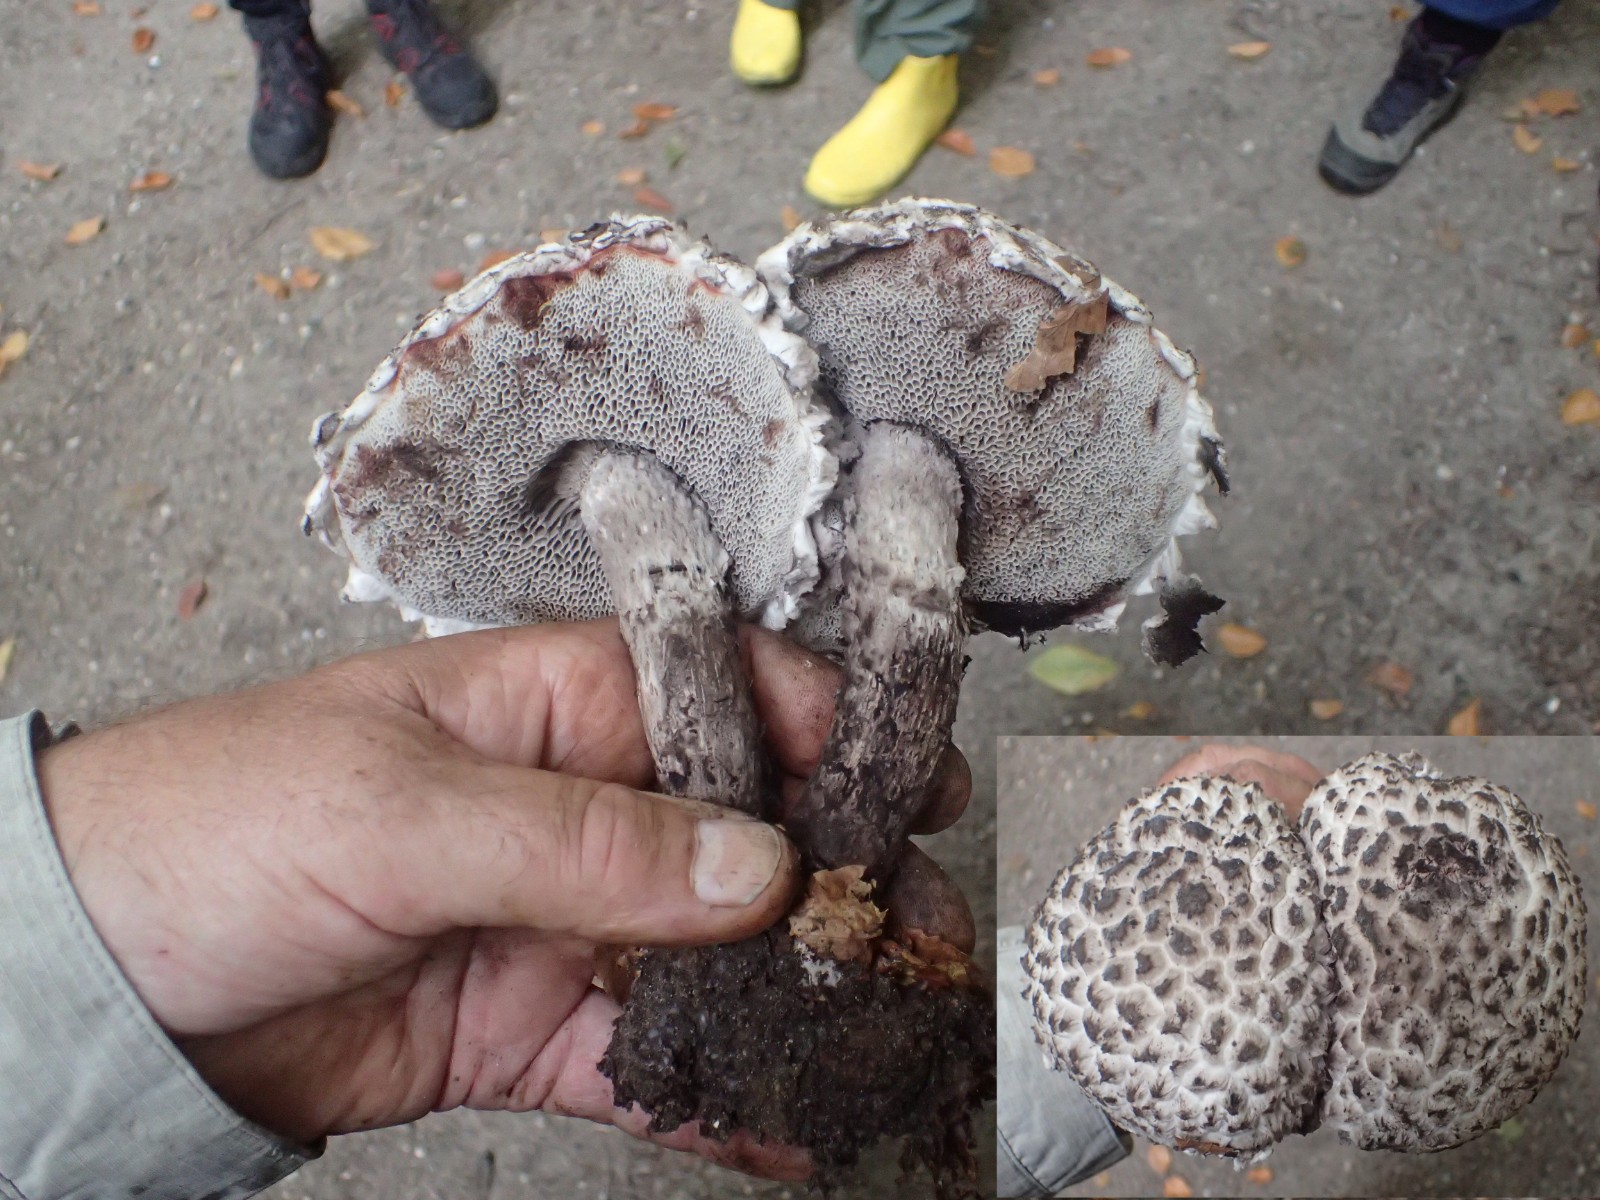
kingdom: Fungi
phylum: Basidiomycota
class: Agaricomycetes
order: Boletales
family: Boletaceae
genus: Strobilomyces
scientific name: Strobilomyces strobilaceus
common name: koglerørhat
